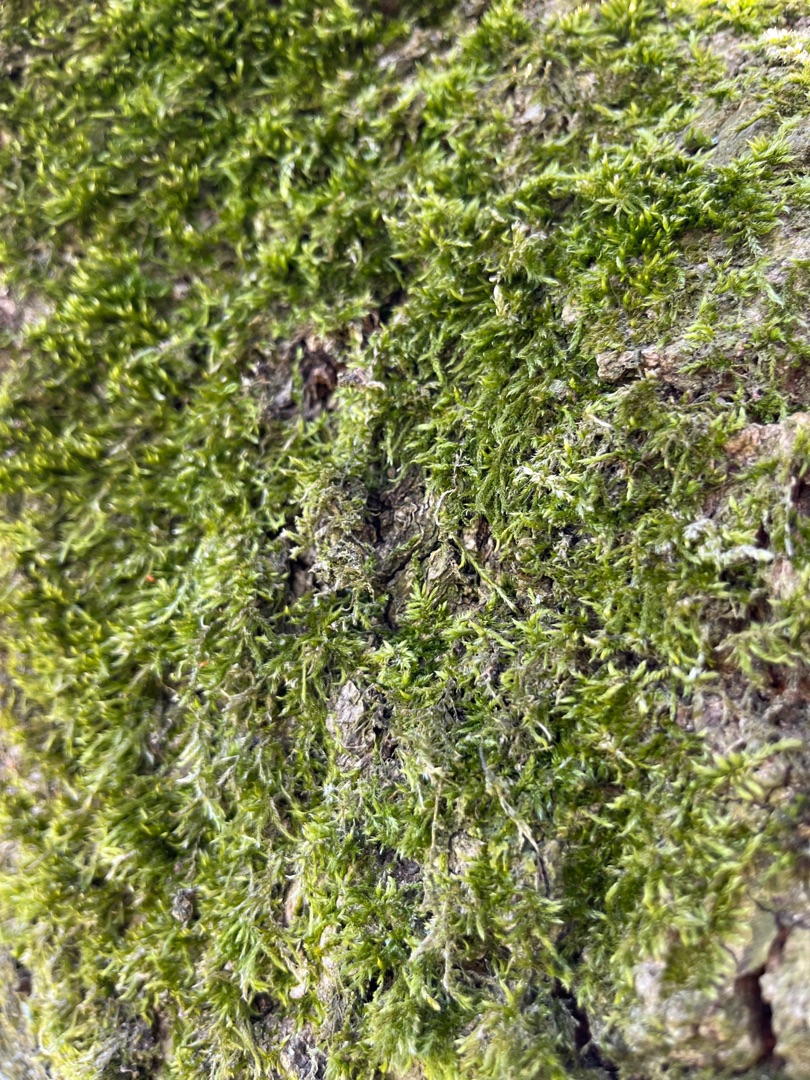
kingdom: Plantae
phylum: Bryophyta
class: Bryopsida
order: Hypnales
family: Hypnaceae
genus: Hypnum
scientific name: Hypnum
